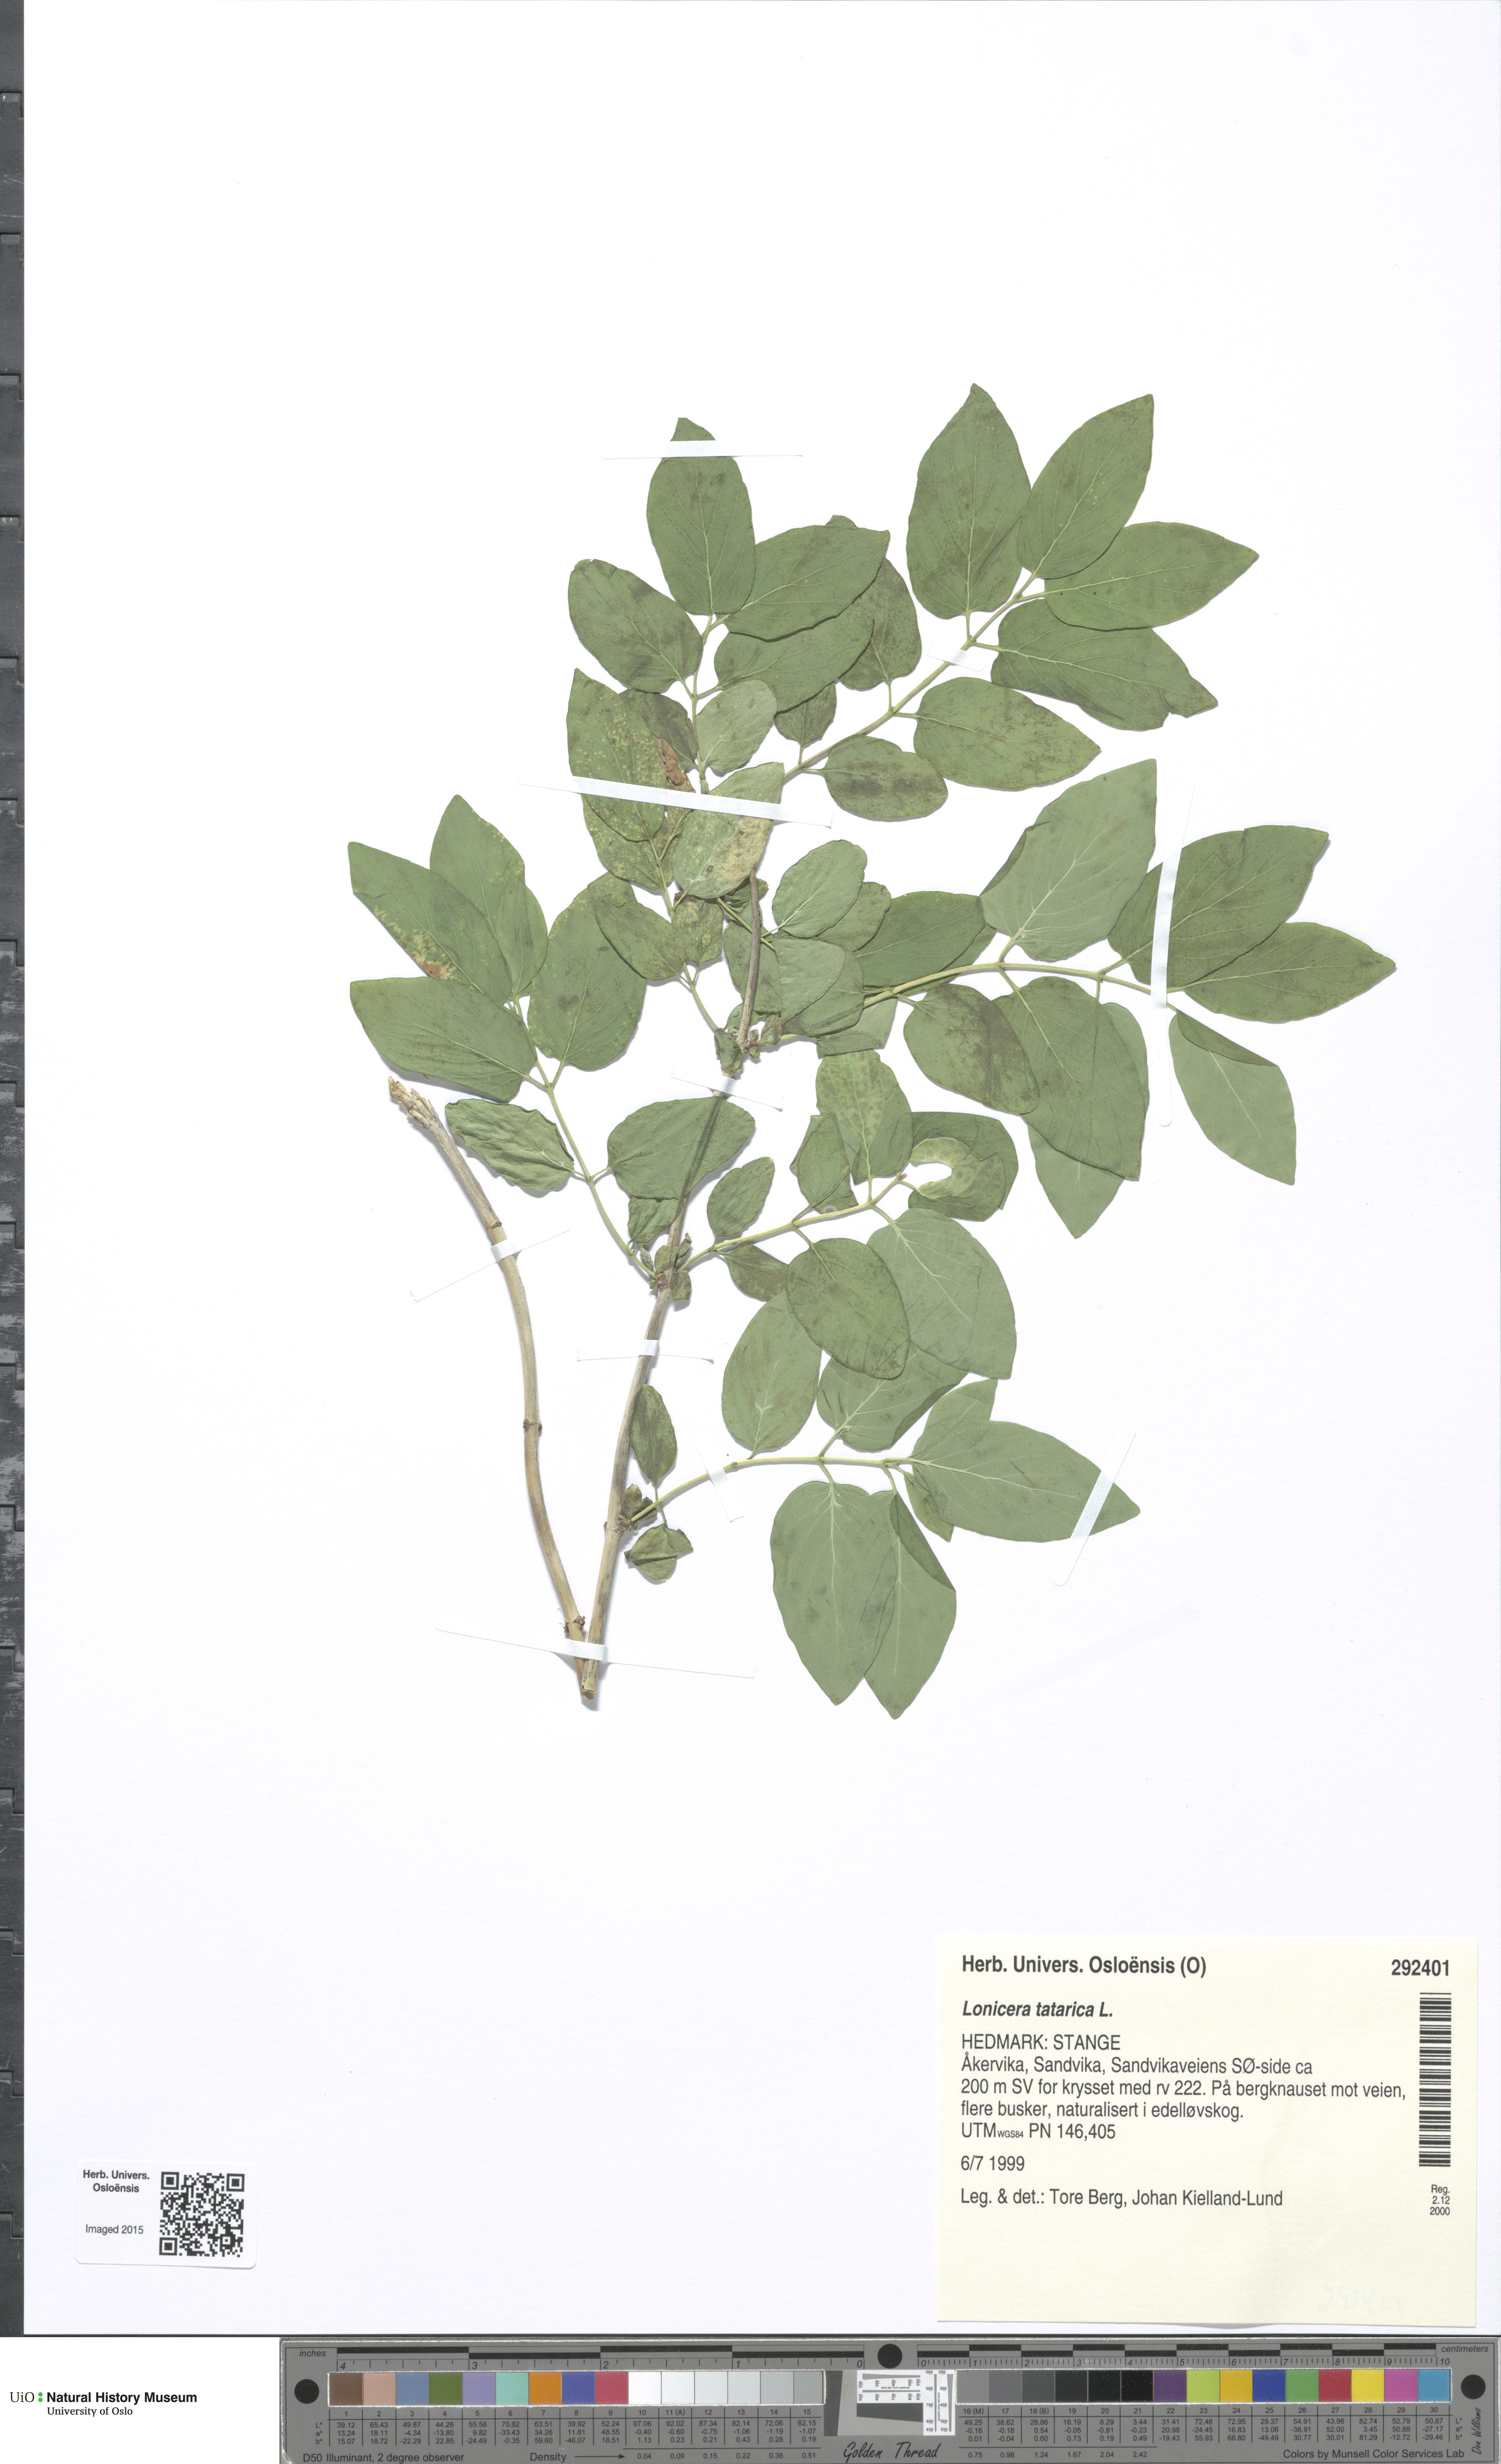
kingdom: Plantae
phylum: Tracheophyta
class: Magnoliopsida
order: Dipsacales
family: Caprifoliaceae
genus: Lonicera
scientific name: Lonicera tatarica
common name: Tatarian honeysuckle
